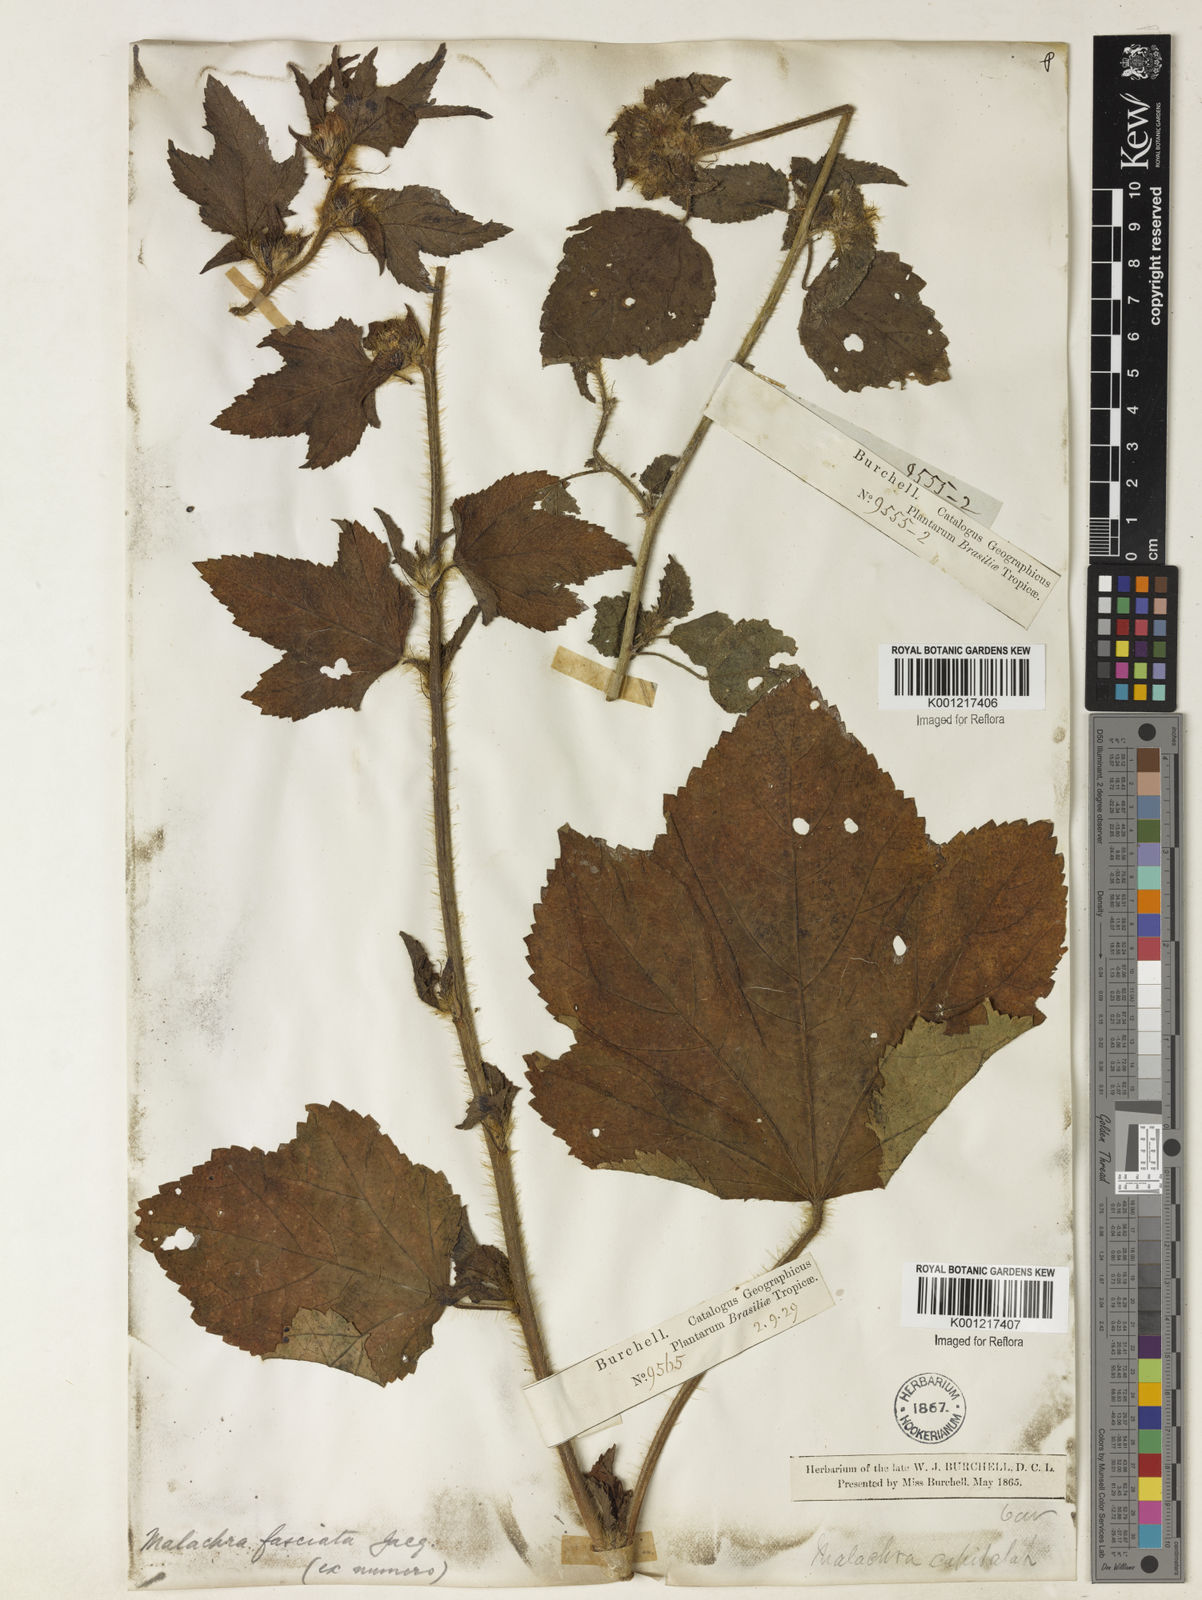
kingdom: Plantae
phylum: Tracheophyta
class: Magnoliopsida
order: Malvales
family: Malvaceae
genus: Malachra
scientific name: Malachra fasciata
